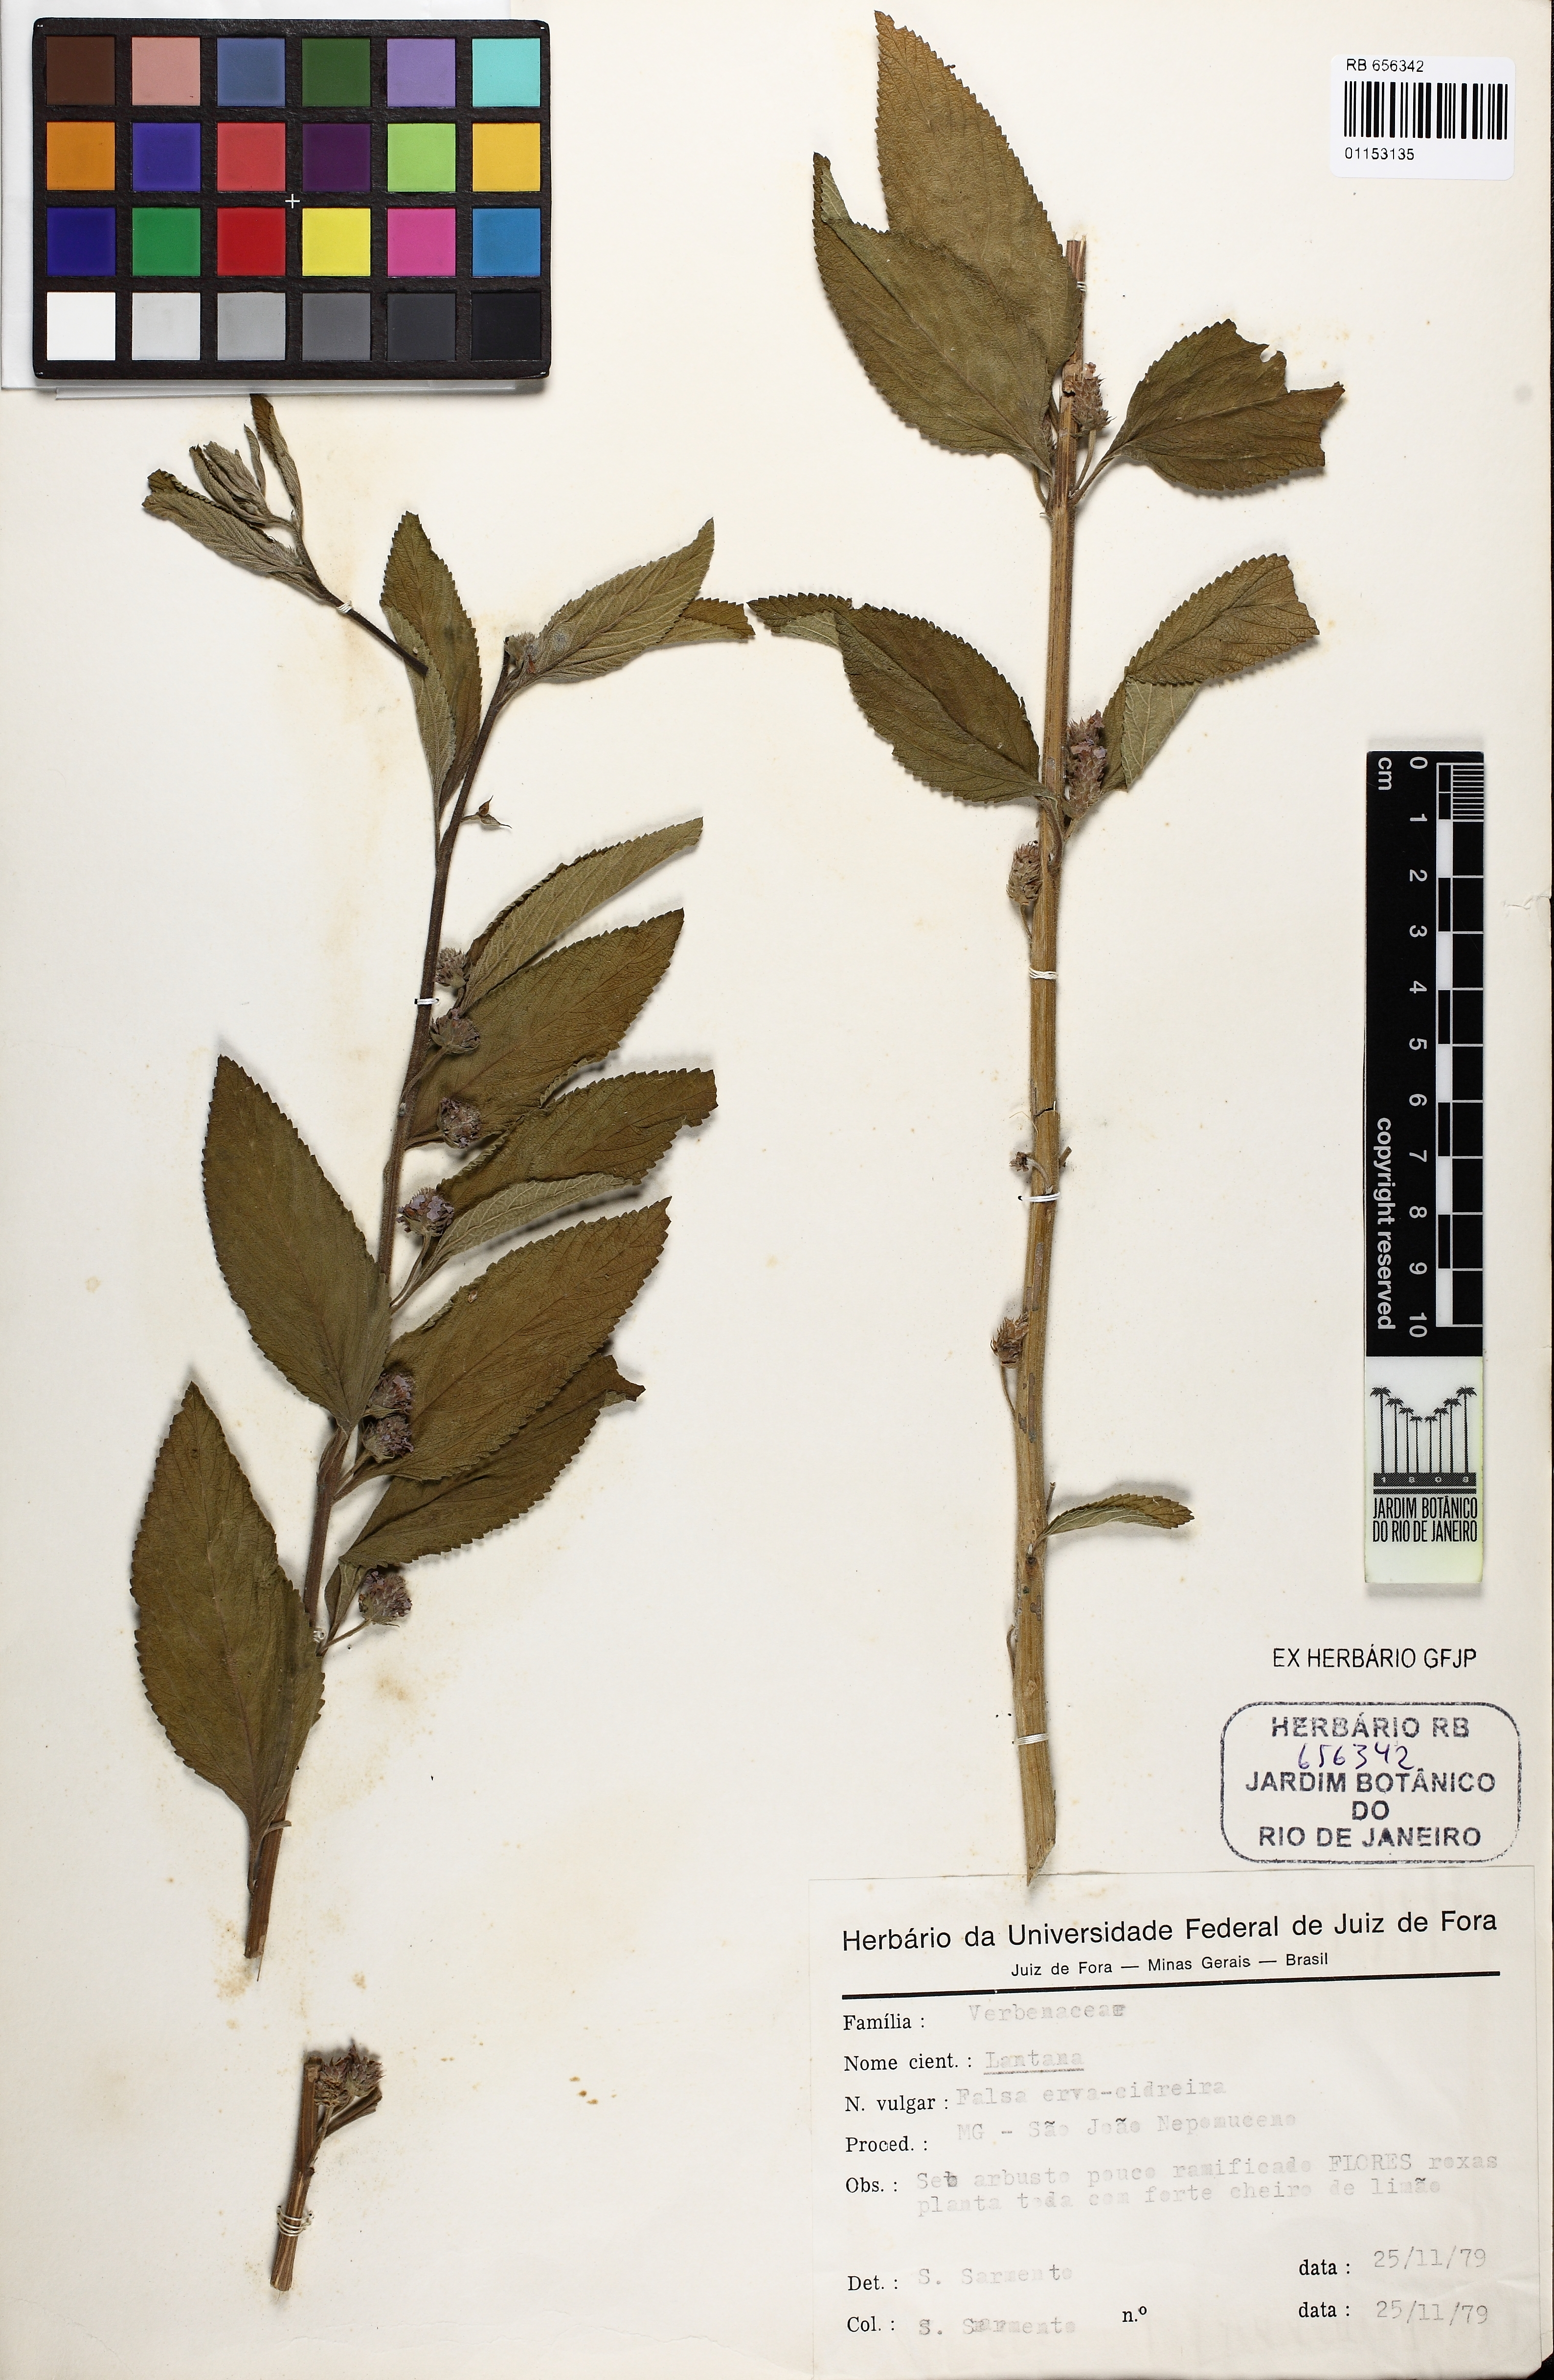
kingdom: Plantae
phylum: Tracheophyta
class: Magnoliopsida
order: Lamiales
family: Verbenaceae
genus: Lantana
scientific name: Lantana
